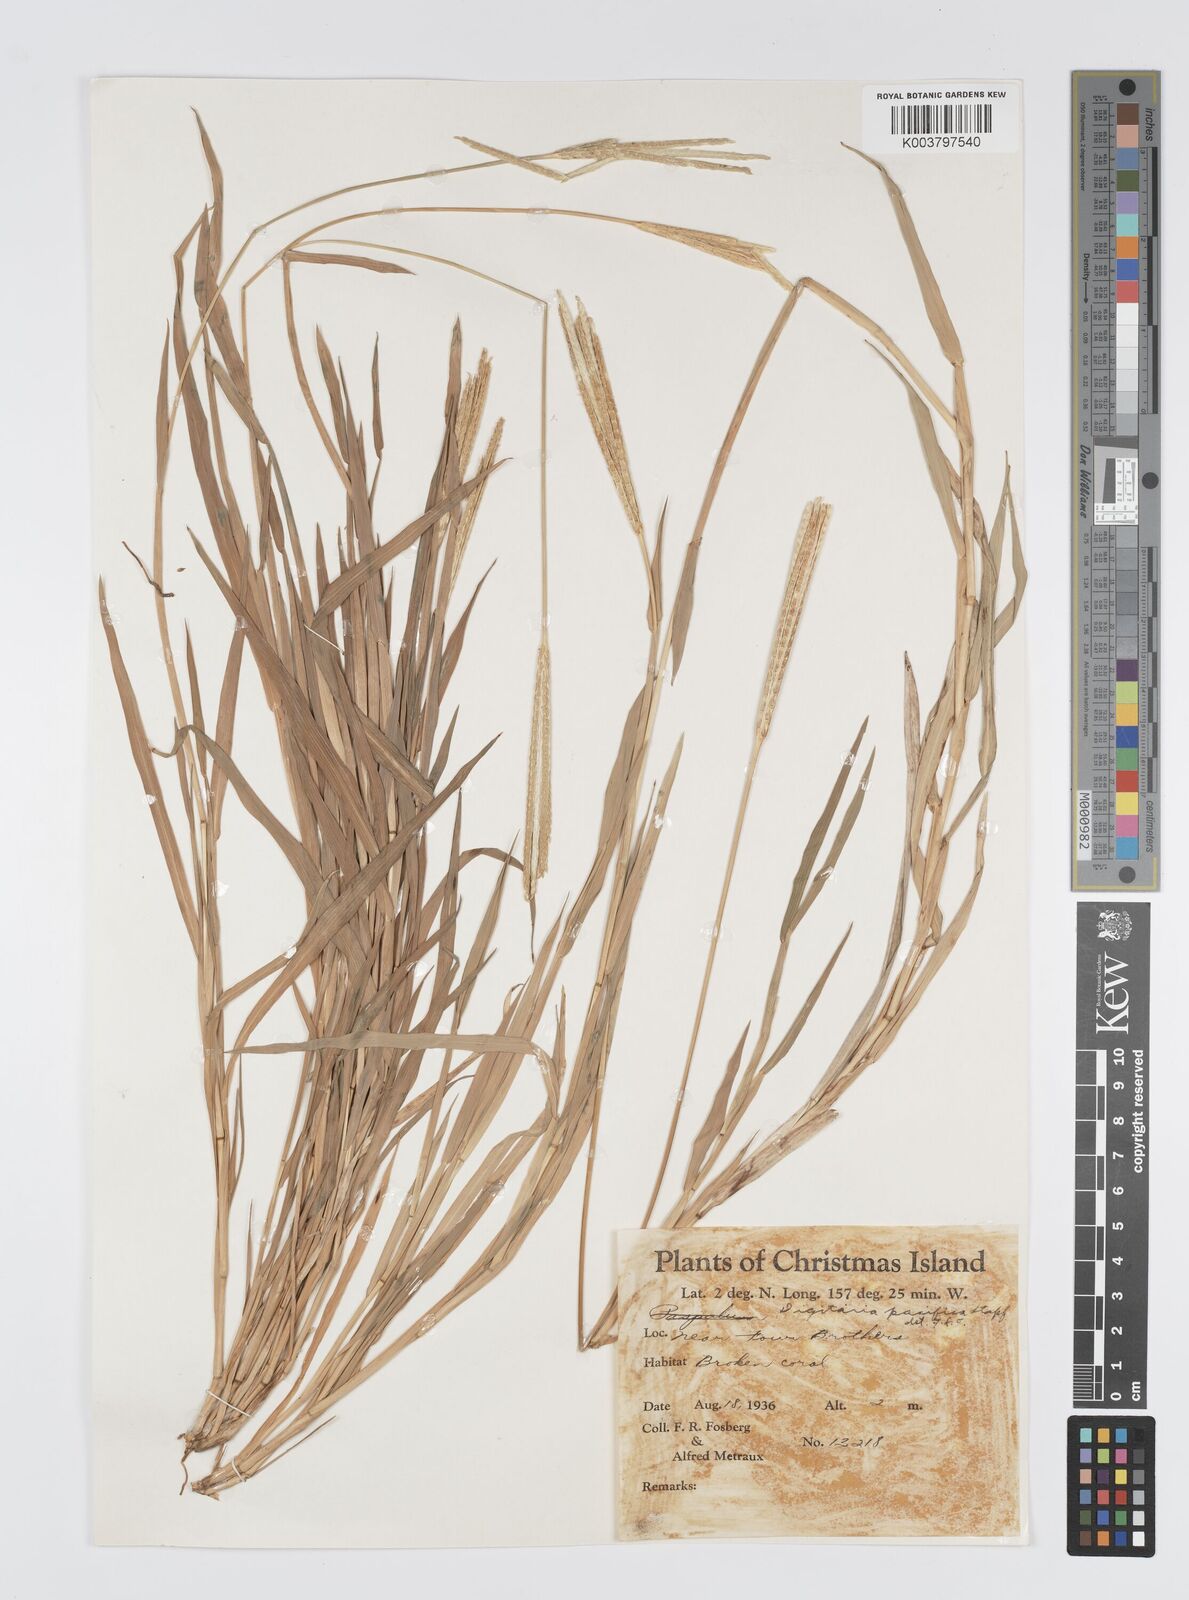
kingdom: Plantae
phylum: Tracheophyta
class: Liliopsida
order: Poales
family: Poaceae
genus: Digitaria
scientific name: Digitaria stenotaphrodes
